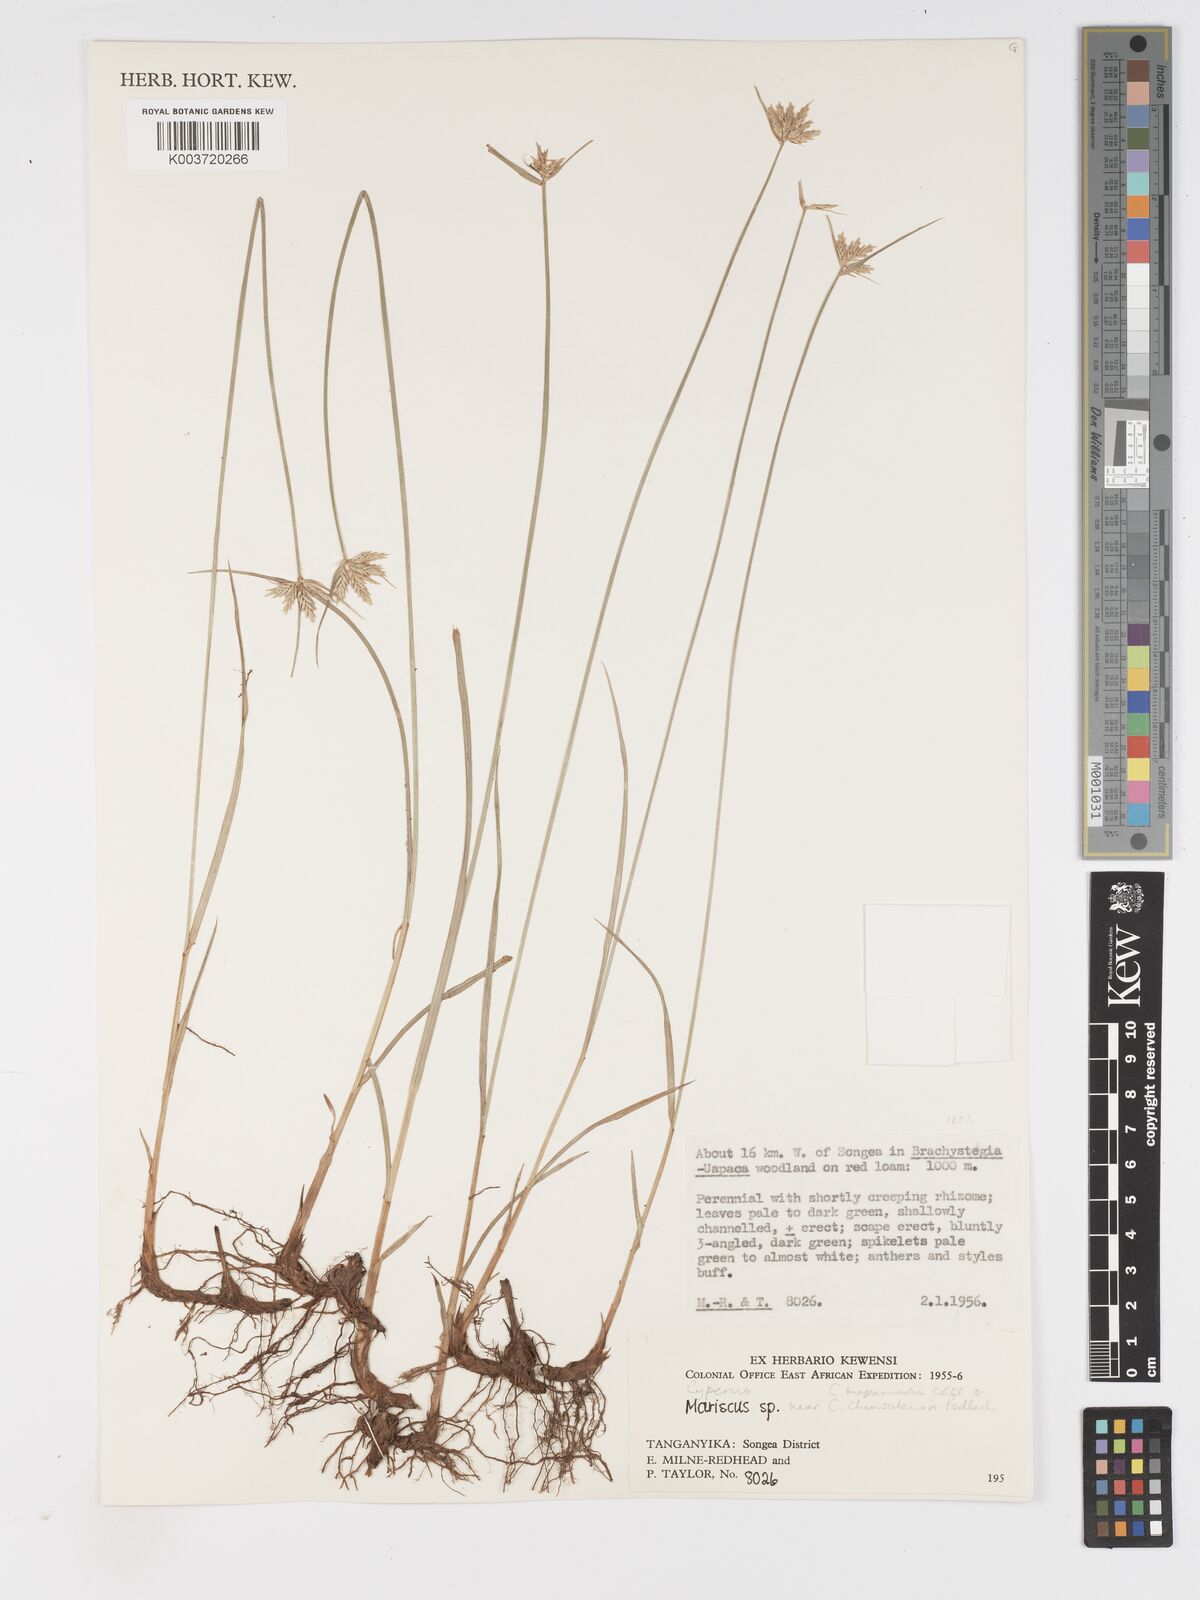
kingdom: Plantae
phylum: Tracheophyta
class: Liliopsida
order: Poales
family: Cyperaceae
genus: Cyperus
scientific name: Cyperus
